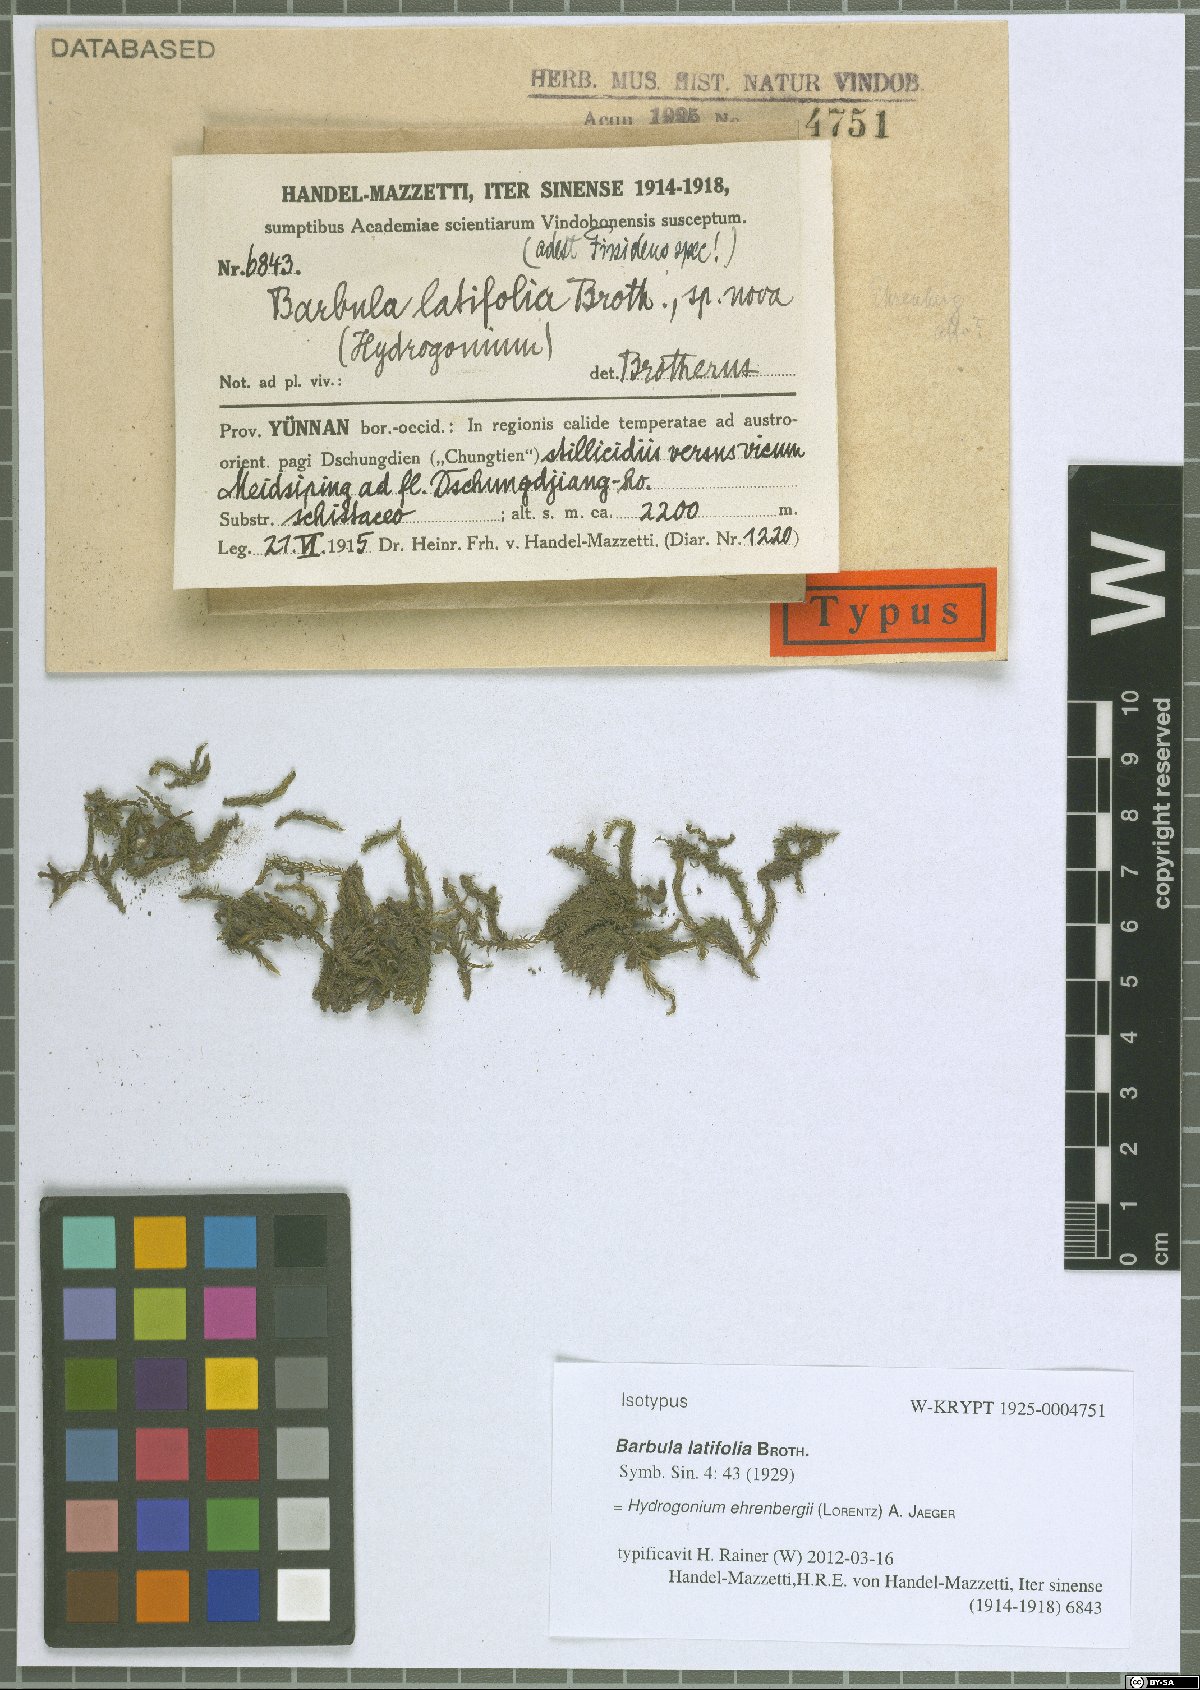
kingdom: Plantae
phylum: Bryophyta
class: Bryopsida
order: Pottiales
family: Pottiaceae
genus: Hydrogonium
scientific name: Hydrogonium bolleanum
